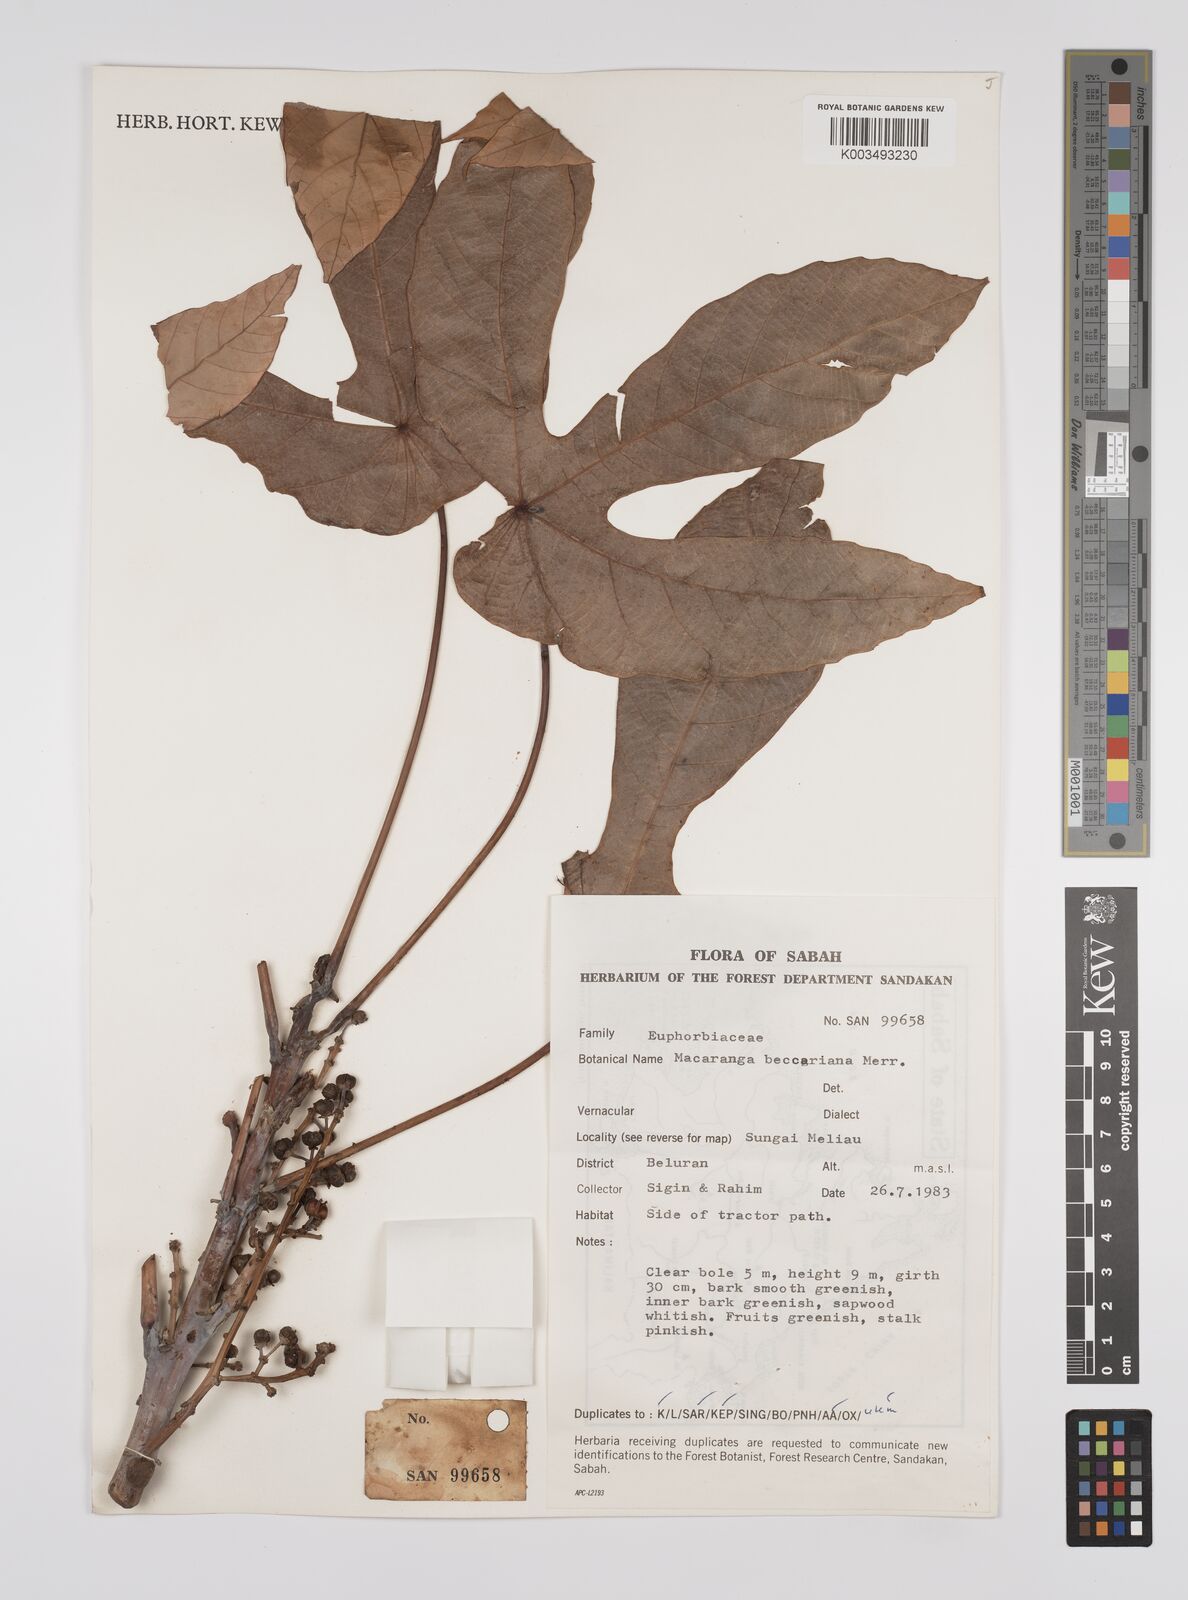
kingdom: Plantae
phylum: Tracheophyta
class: Magnoliopsida
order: Malpighiales
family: Euphorbiaceae
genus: Macaranga
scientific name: Macaranga beccariana
